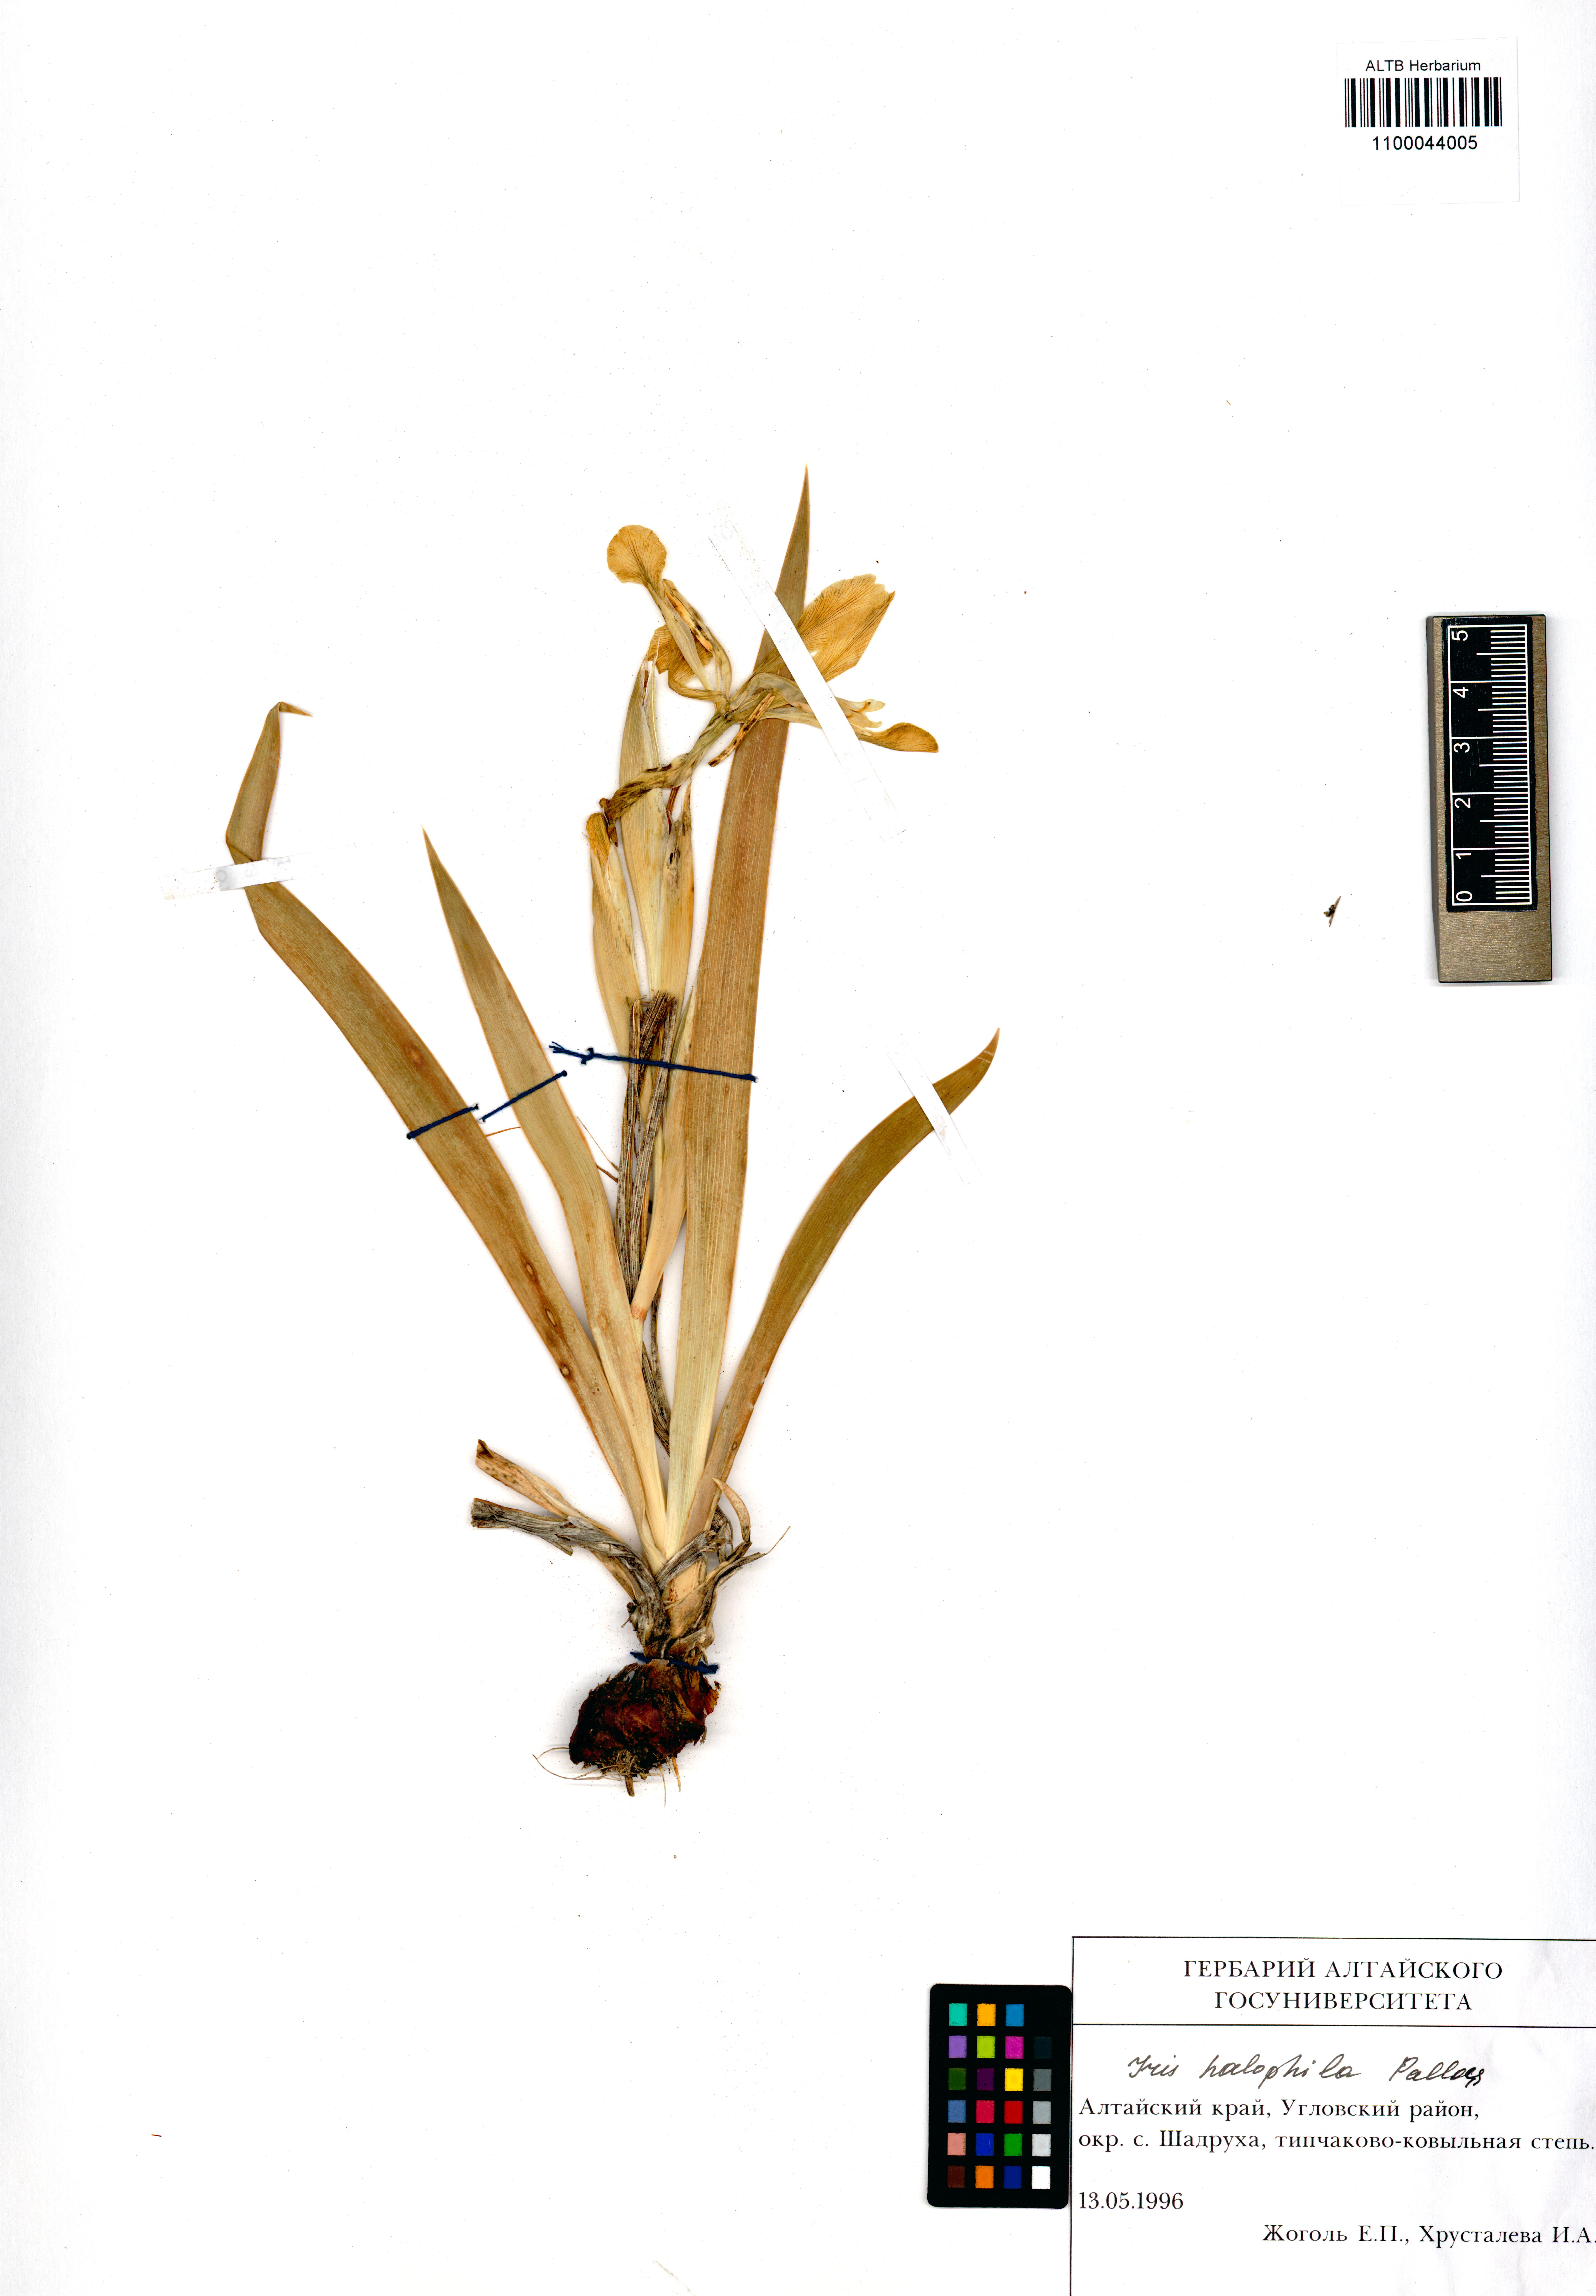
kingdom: Plantae
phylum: Tracheophyta
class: Liliopsida
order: Asparagales
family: Iridaceae
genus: Iris
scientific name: Iris halophila
